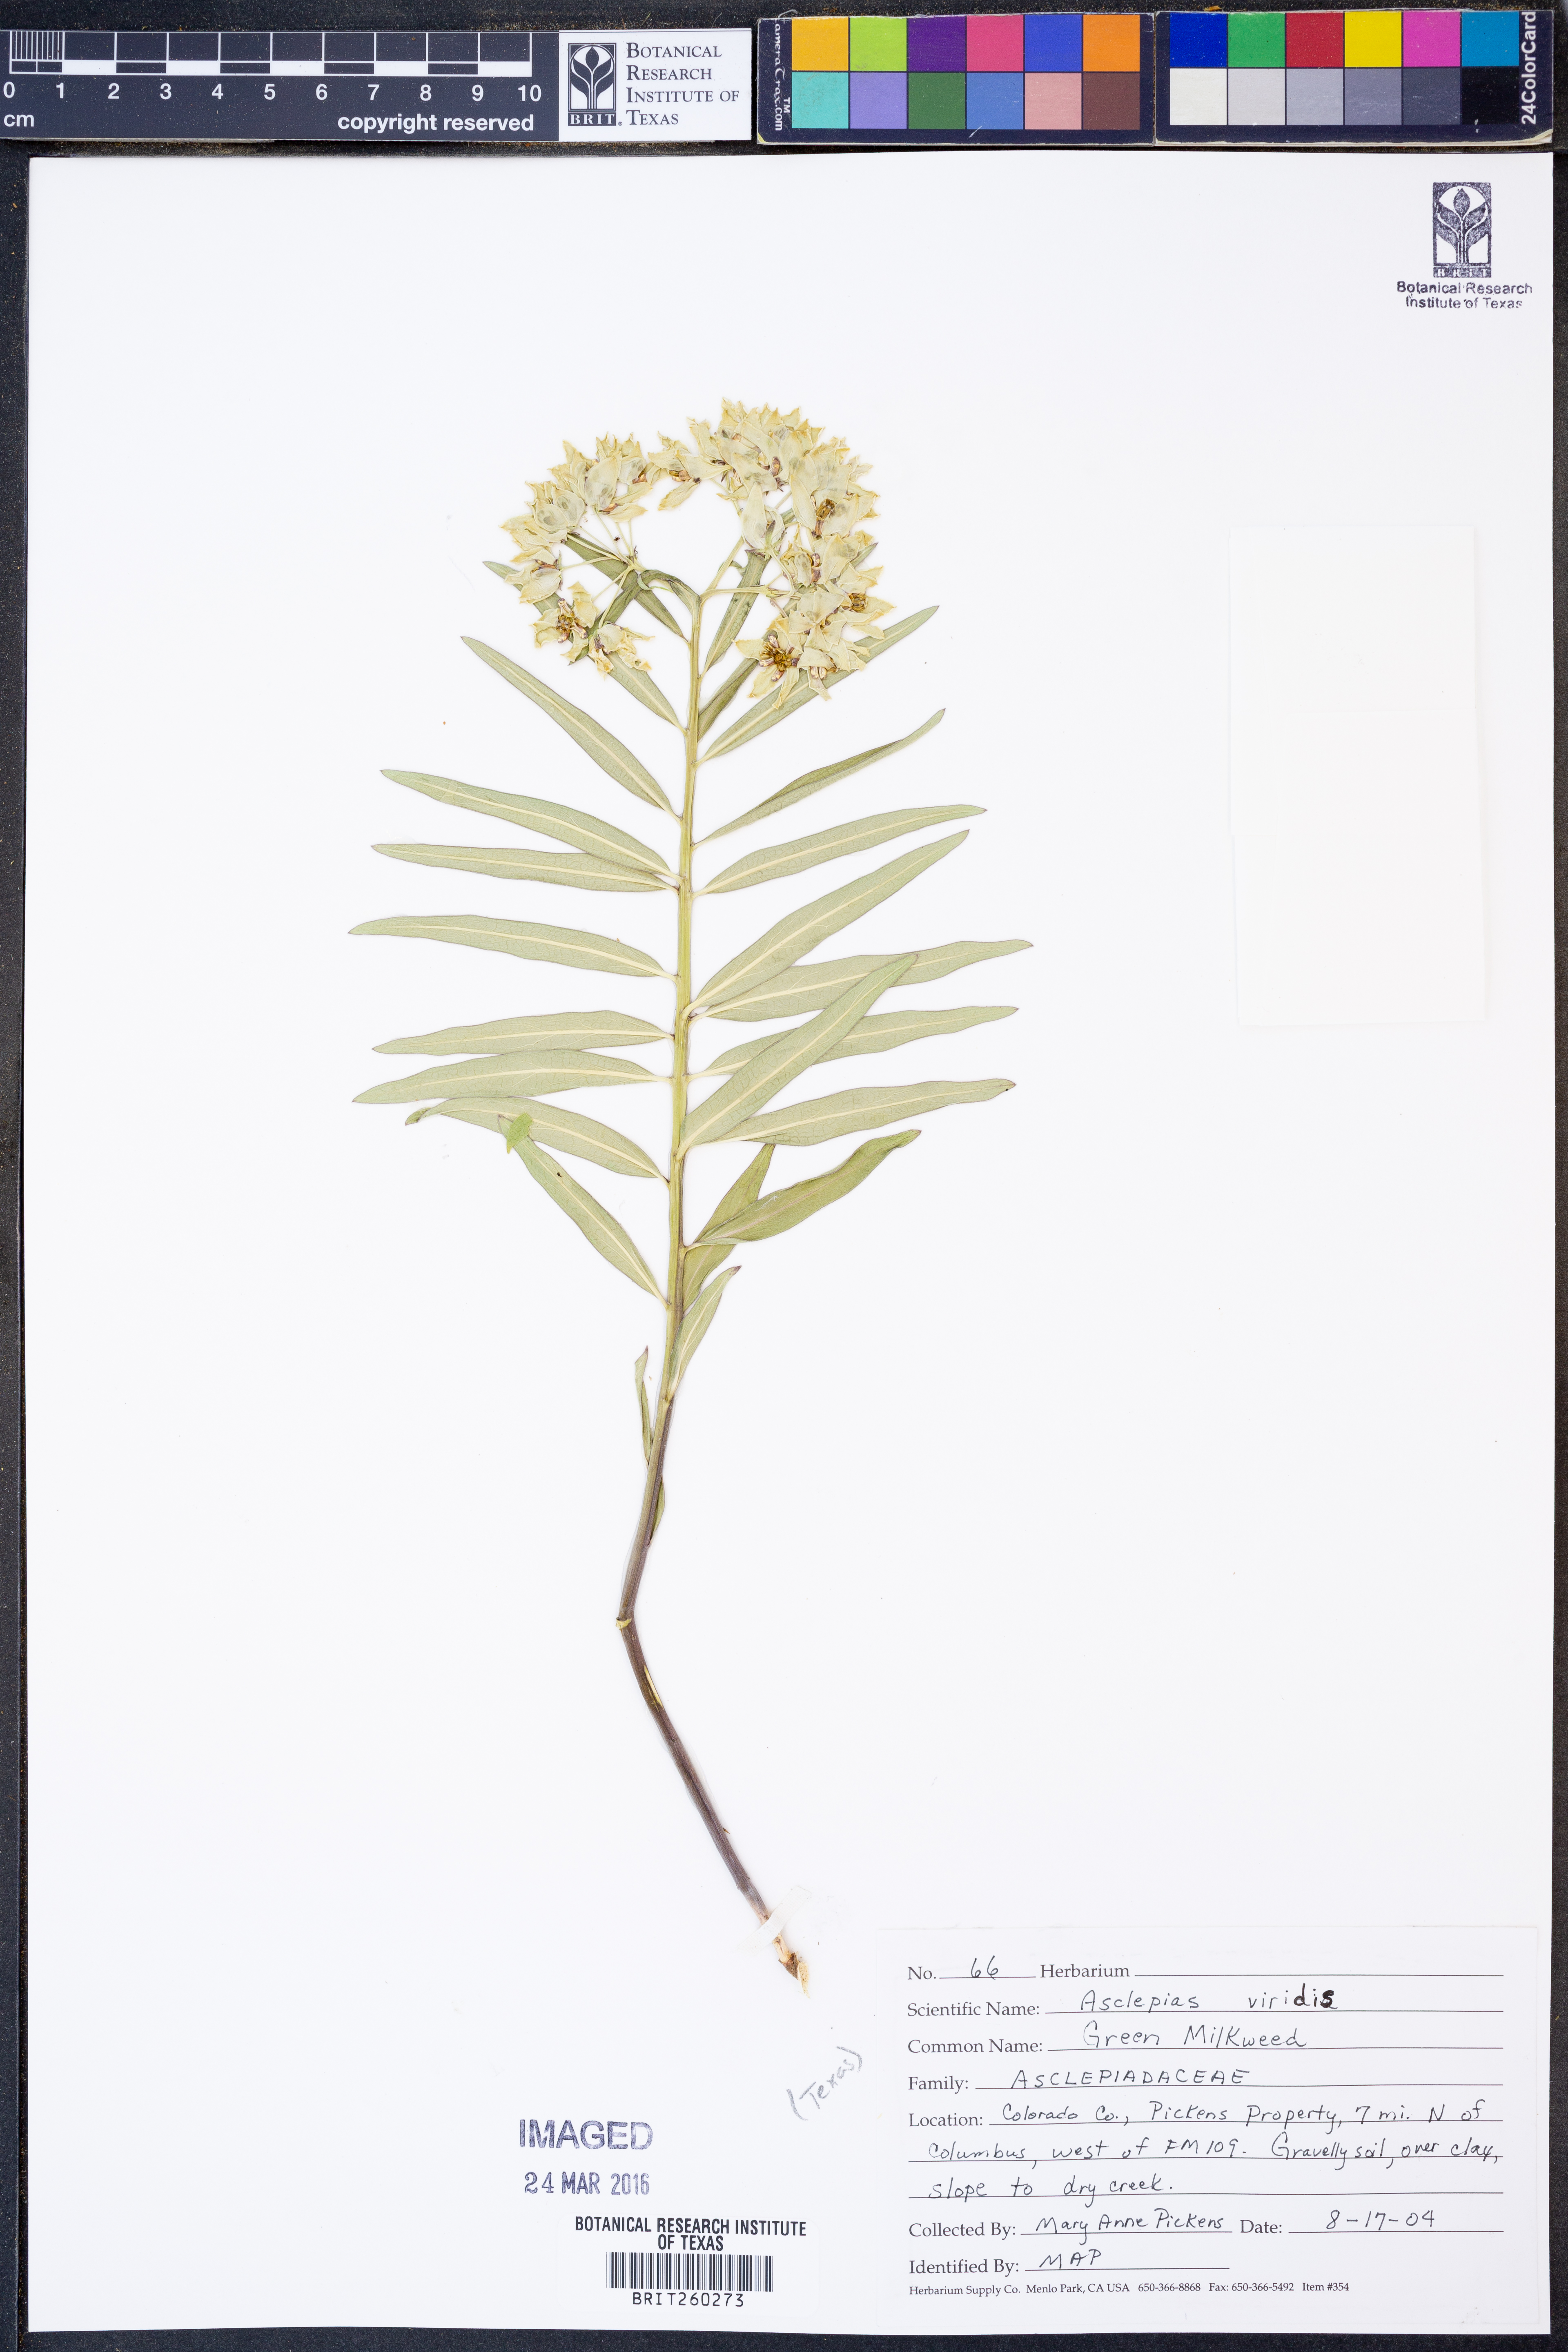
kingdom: Plantae
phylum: Tracheophyta
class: Magnoliopsida
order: Gentianales
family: Apocynaceae
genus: Asclepias
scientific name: Asclepias viridis
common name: Antelope-horns
